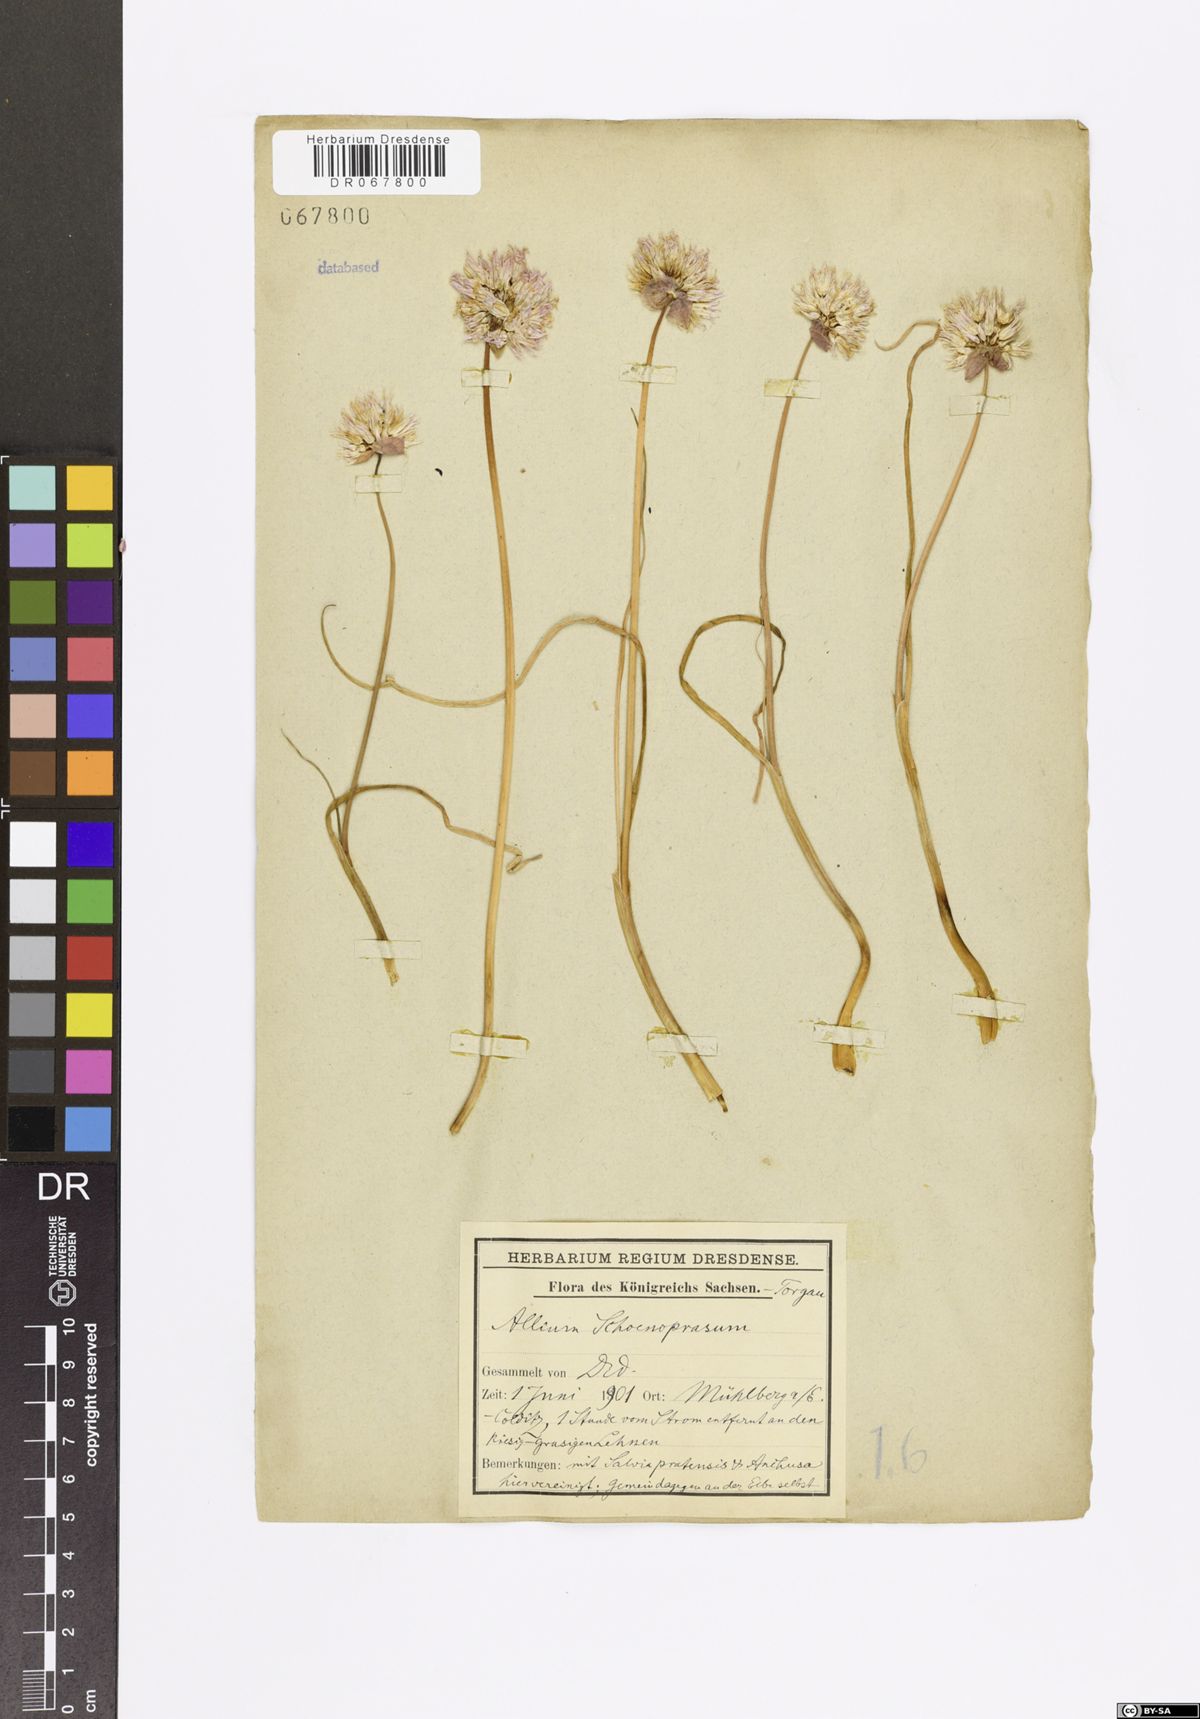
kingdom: Plantae
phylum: Tracheophyta
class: Liliopsida
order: Asparagales
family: Amaryllidaceae
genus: Allium
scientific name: Allium schoenoprasum
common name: Chives
